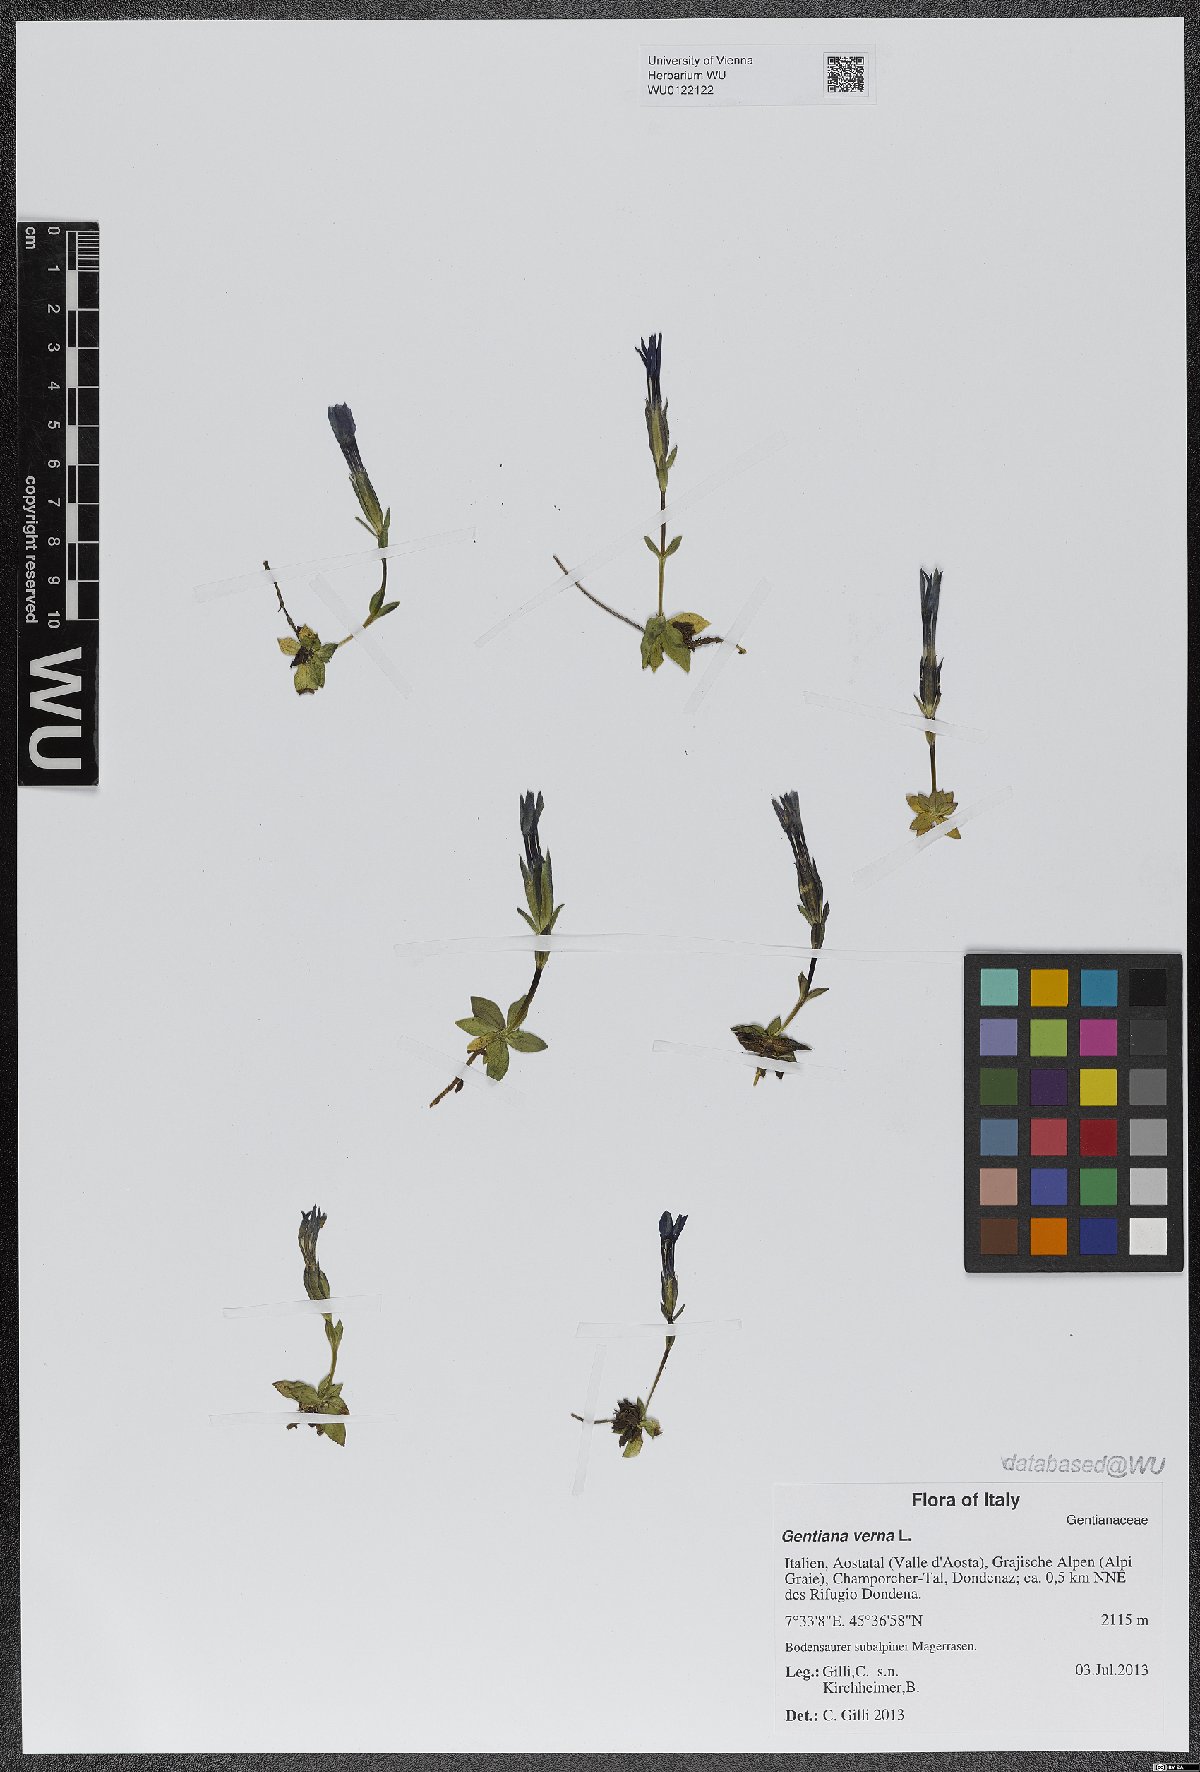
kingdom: Plantae
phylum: Tracheophyta
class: Magnoliopsida
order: Gentianales
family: Gentianaceae
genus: Gentiana
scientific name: Gentiana verna
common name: Spring gentian
